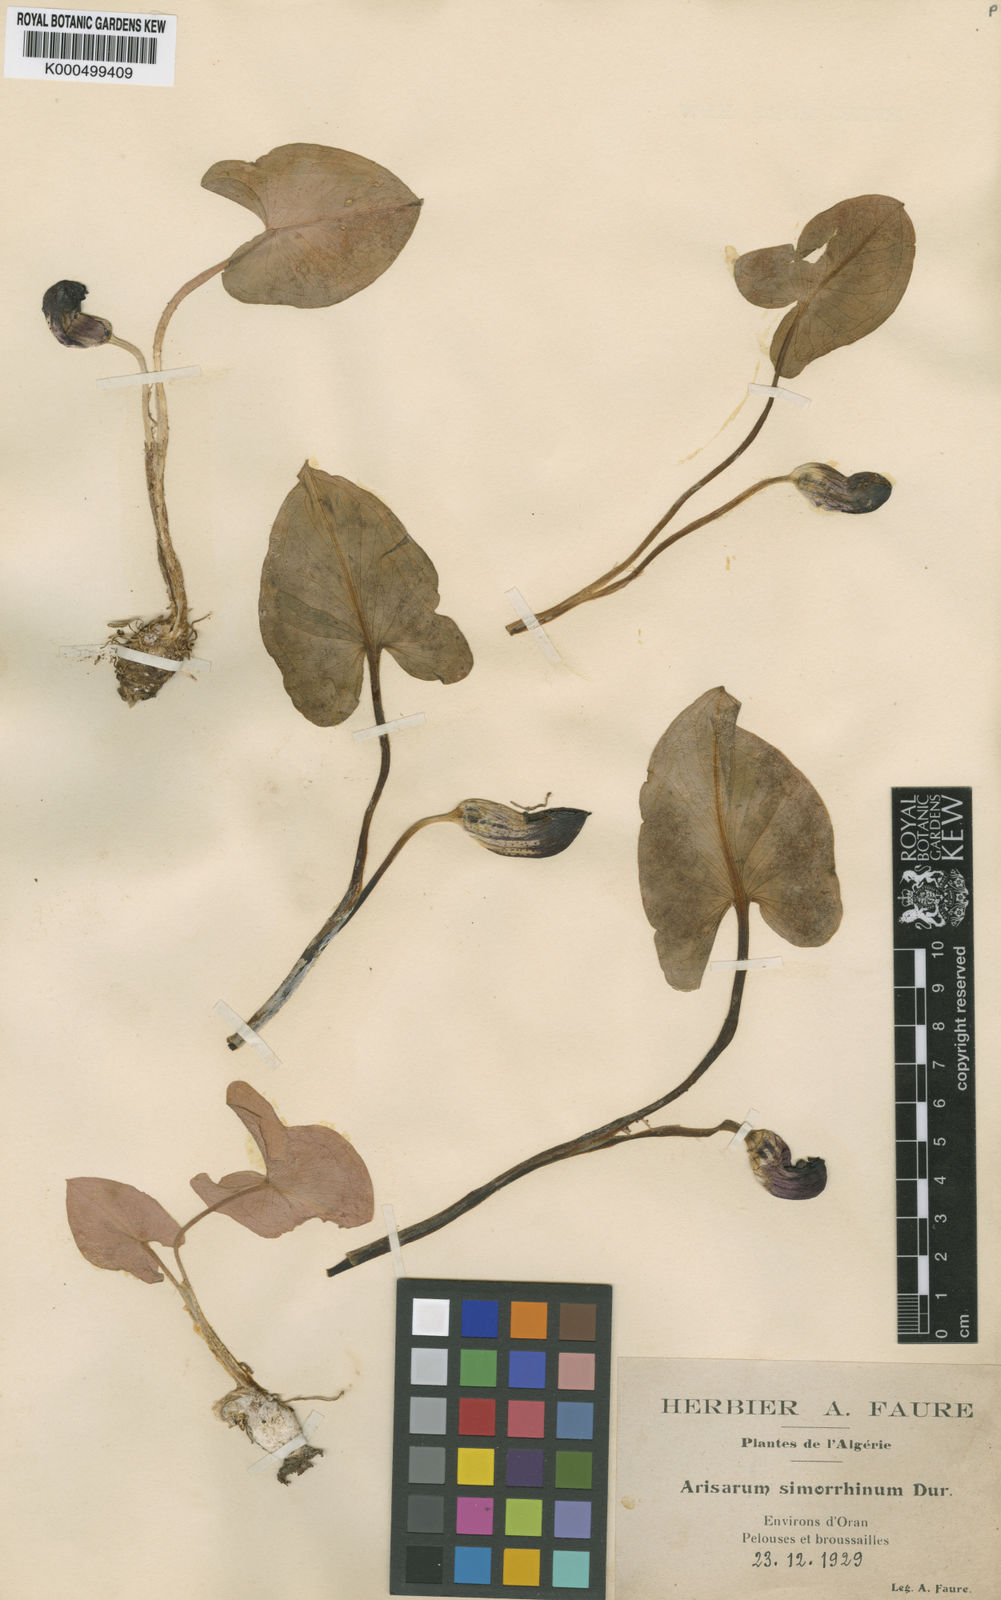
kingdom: Plantae
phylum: Tracheophyta
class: Liliopsida
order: Alismatales
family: Araceae
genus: Arisarum
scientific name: Arisarum simorrhinum
